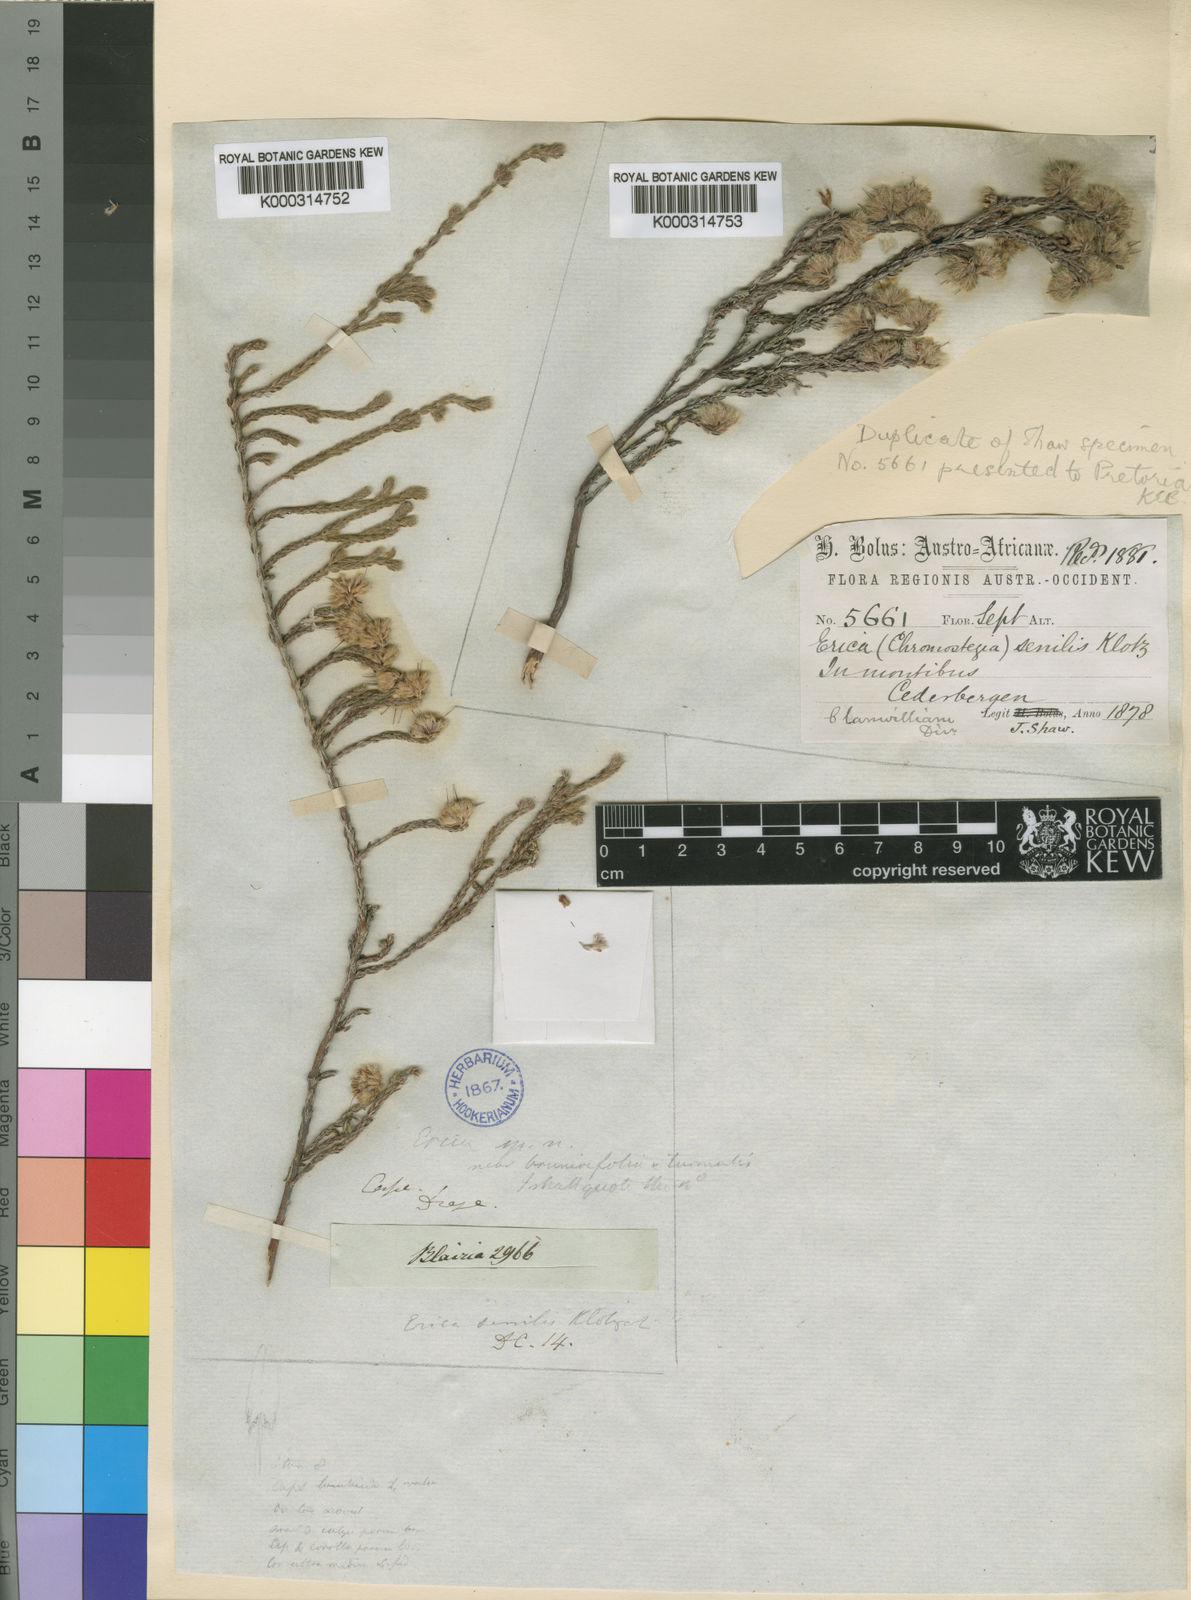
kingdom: Plantae
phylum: Tracheophyta
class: Magnoliopsida
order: Ericales
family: Ericaceae
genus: Erica
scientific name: Erica senilis
